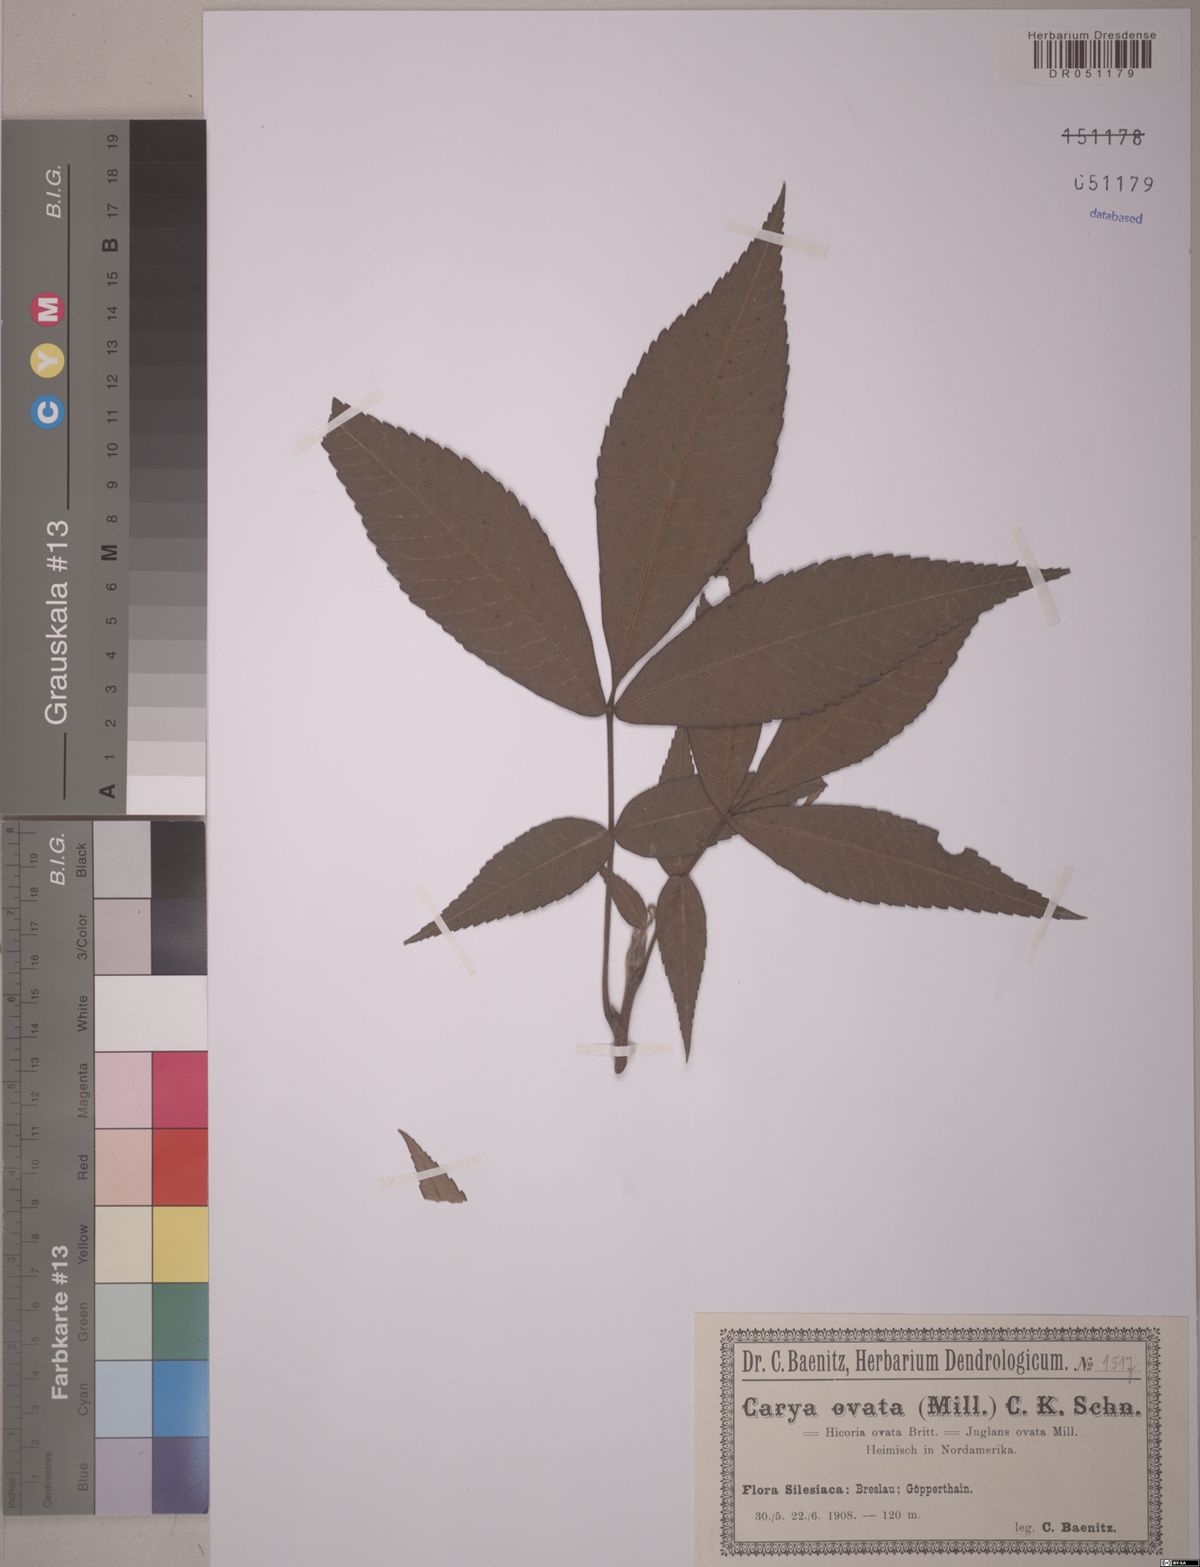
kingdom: Plantae
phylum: Tracheophyta
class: Magnoliopsida
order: Fagales
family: Juglandaceae
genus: Carya
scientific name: Carya ovata
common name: Shagbark hickory
